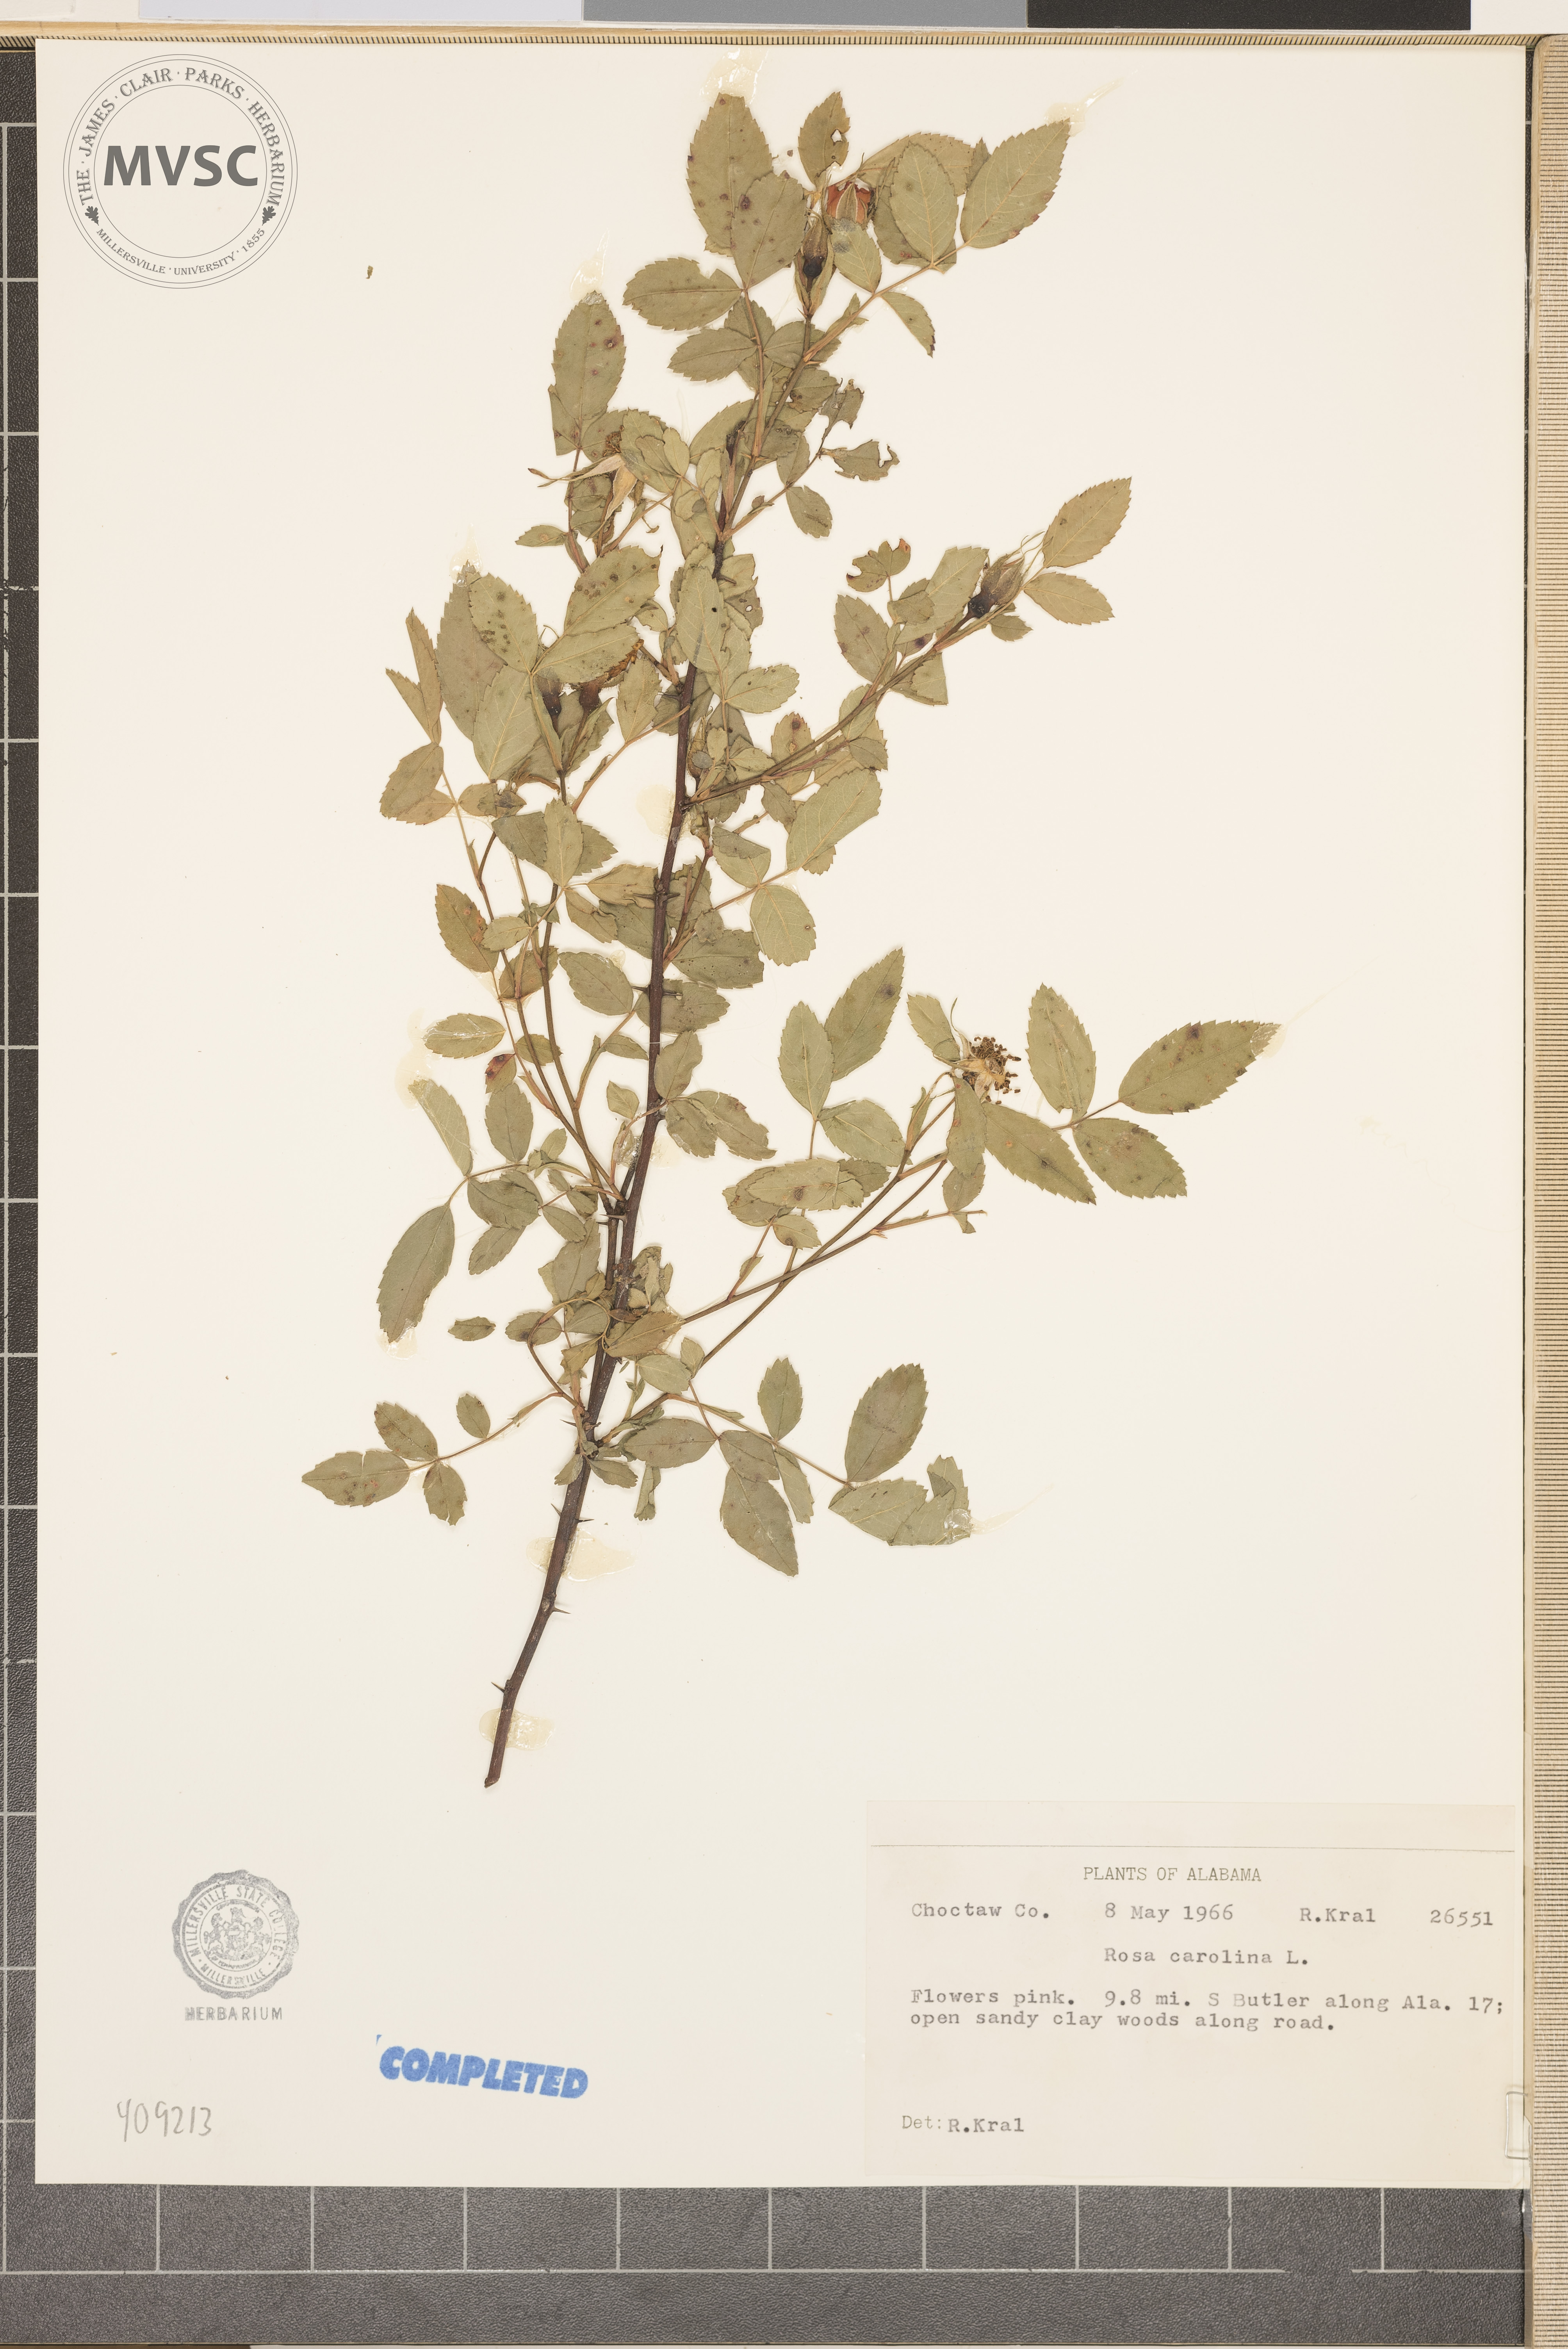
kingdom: Plantae
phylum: Tracheophyta
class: Magnoliopsida
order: Rosales
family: Rosaceae
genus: Rosa
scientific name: Rosa carolina
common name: Pasture rose
